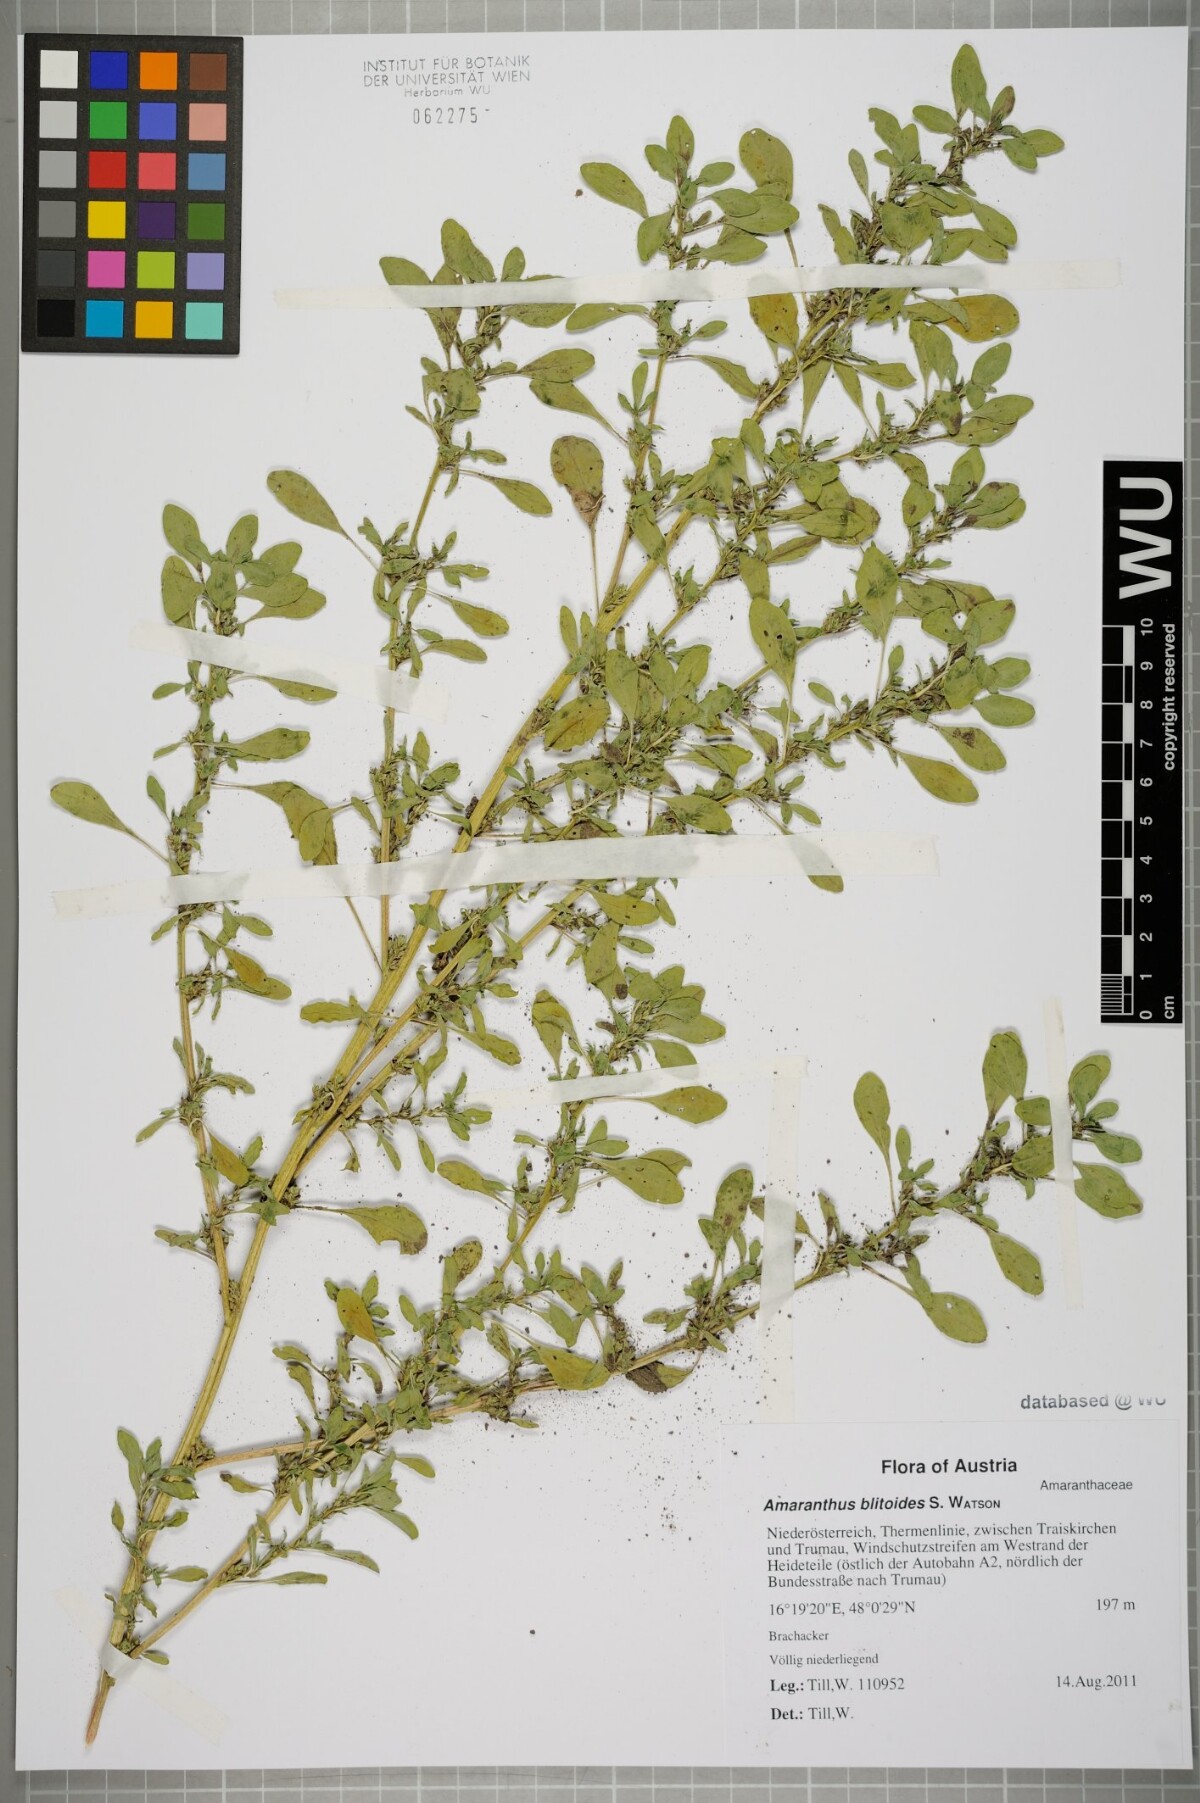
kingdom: Plantae
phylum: Tracheophyta
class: Magnoliopsida
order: Caryophyllales
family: Amaranthaceae
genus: Amaranthus
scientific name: Amaranthus blitoides
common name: Prostrate pigweed
